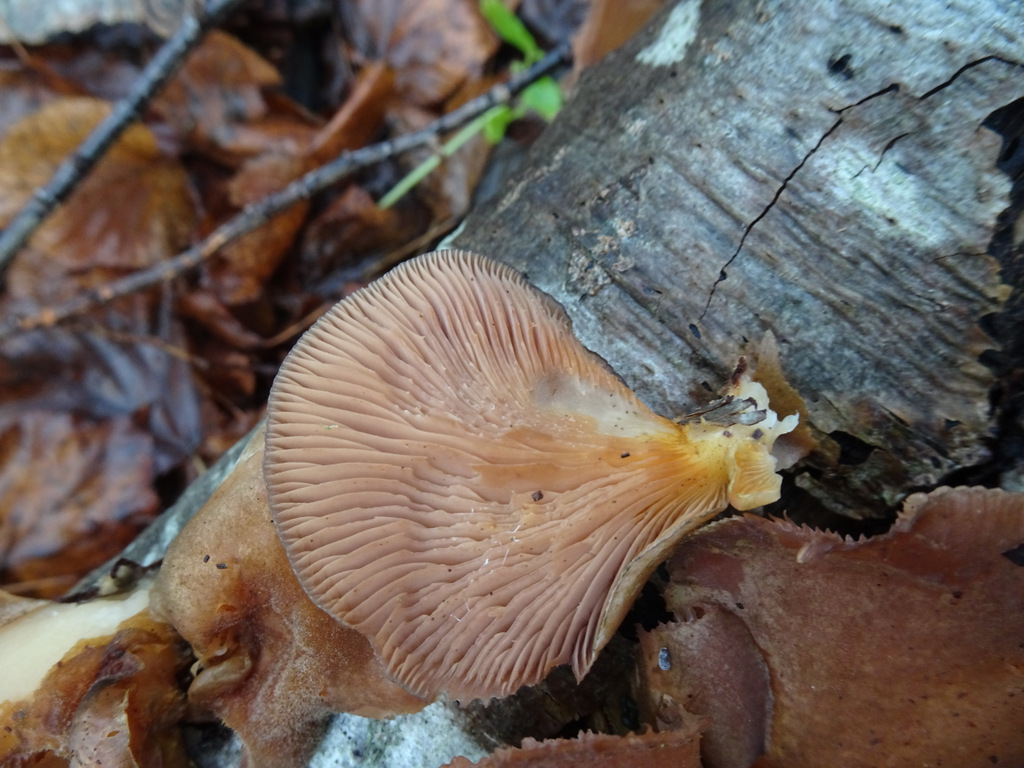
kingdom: Fungi
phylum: Basidiomycota
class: Agaricomycetes
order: Agaricales
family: Sarcomyxaceae
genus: Sarcomyxa
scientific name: Sarcomyxa serotina
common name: gummihat
